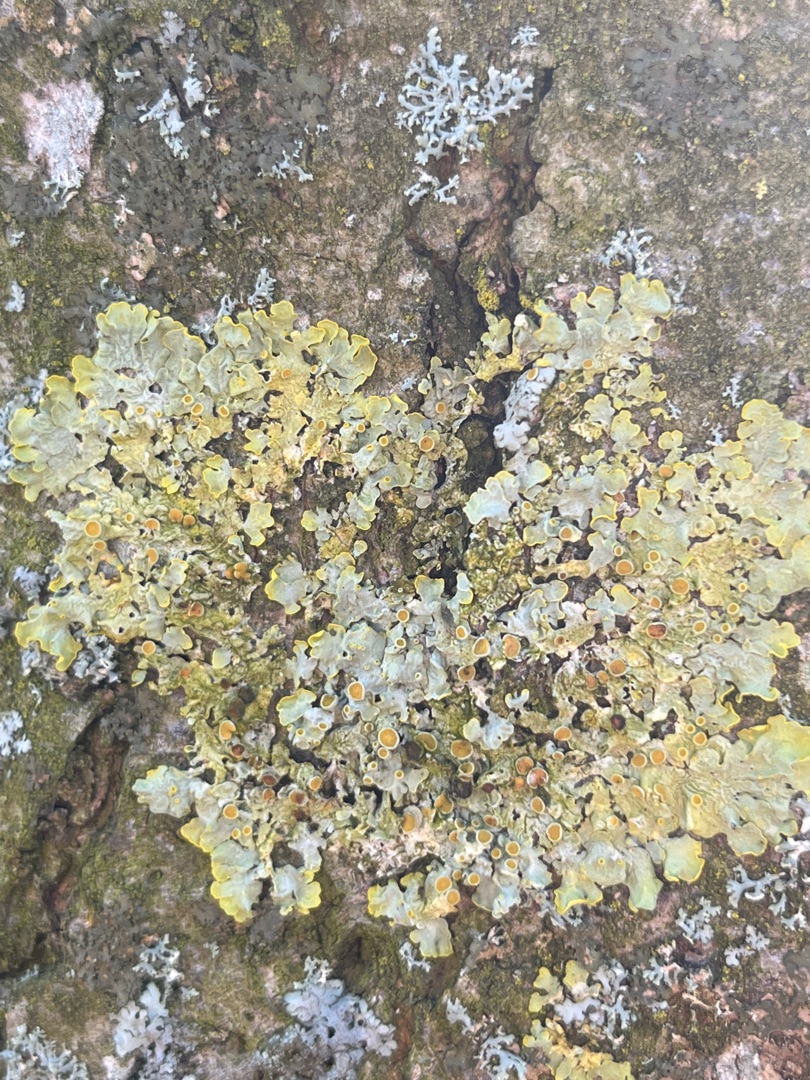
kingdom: Fungi
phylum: Ascomycota
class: Lecanoromycetes
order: Teloschistales
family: Teloschistaceae
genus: Xanthoria
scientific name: Xanthoria parietina
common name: Almindelig væggelav
